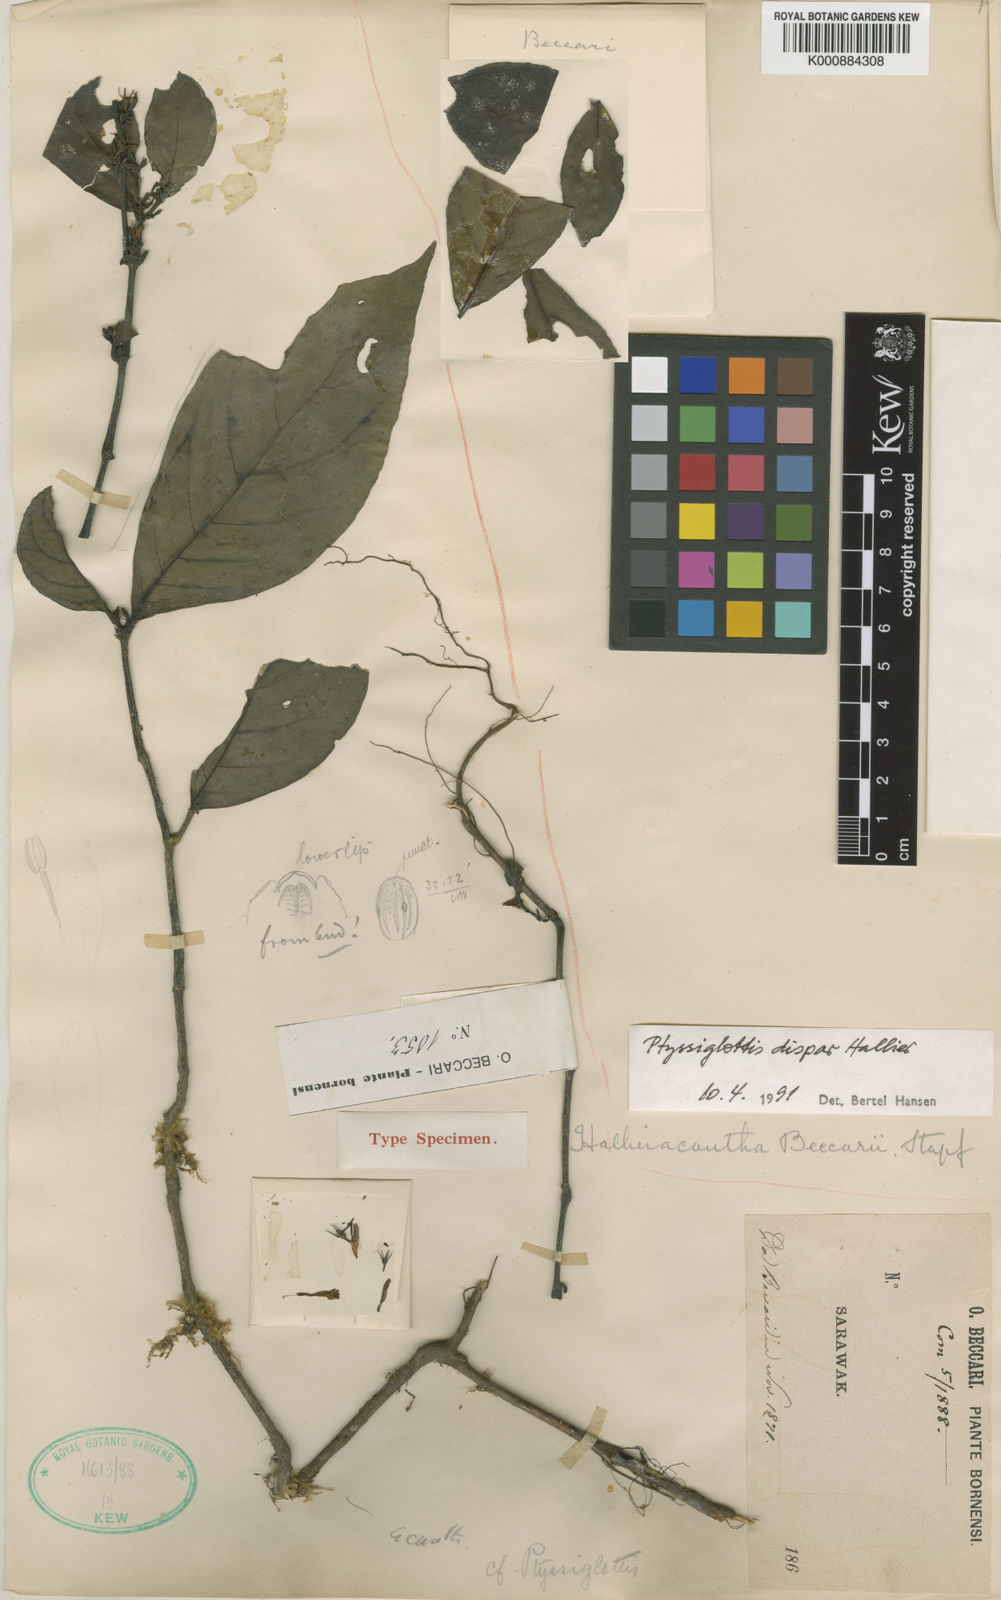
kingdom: Plantae
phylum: Tracheophyta
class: Magnoliopsida
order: Lamiales
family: Acanthaceae
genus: Justicia
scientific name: Justicia pulgarensis
